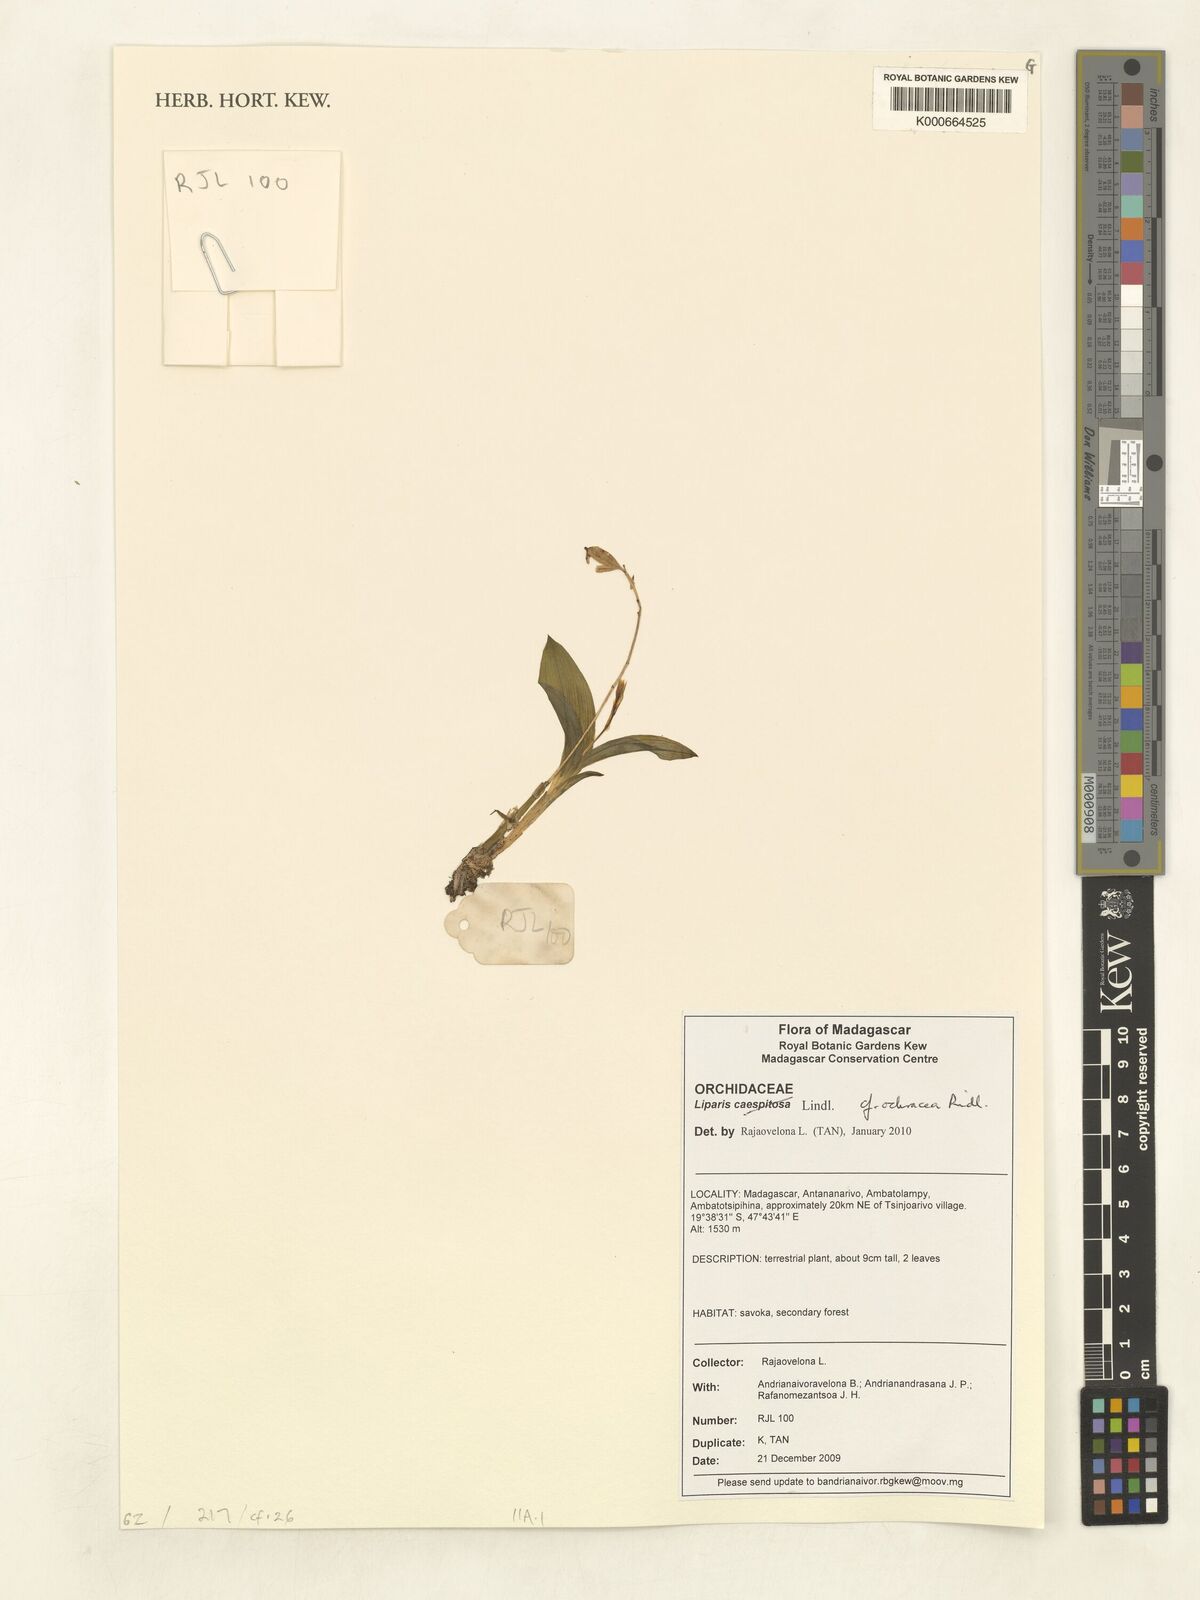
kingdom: Plantae
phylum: Tracheophyta
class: Liliopsida
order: Asparagales
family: Orchidaceae
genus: Liparis
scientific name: Liparis ochracea
